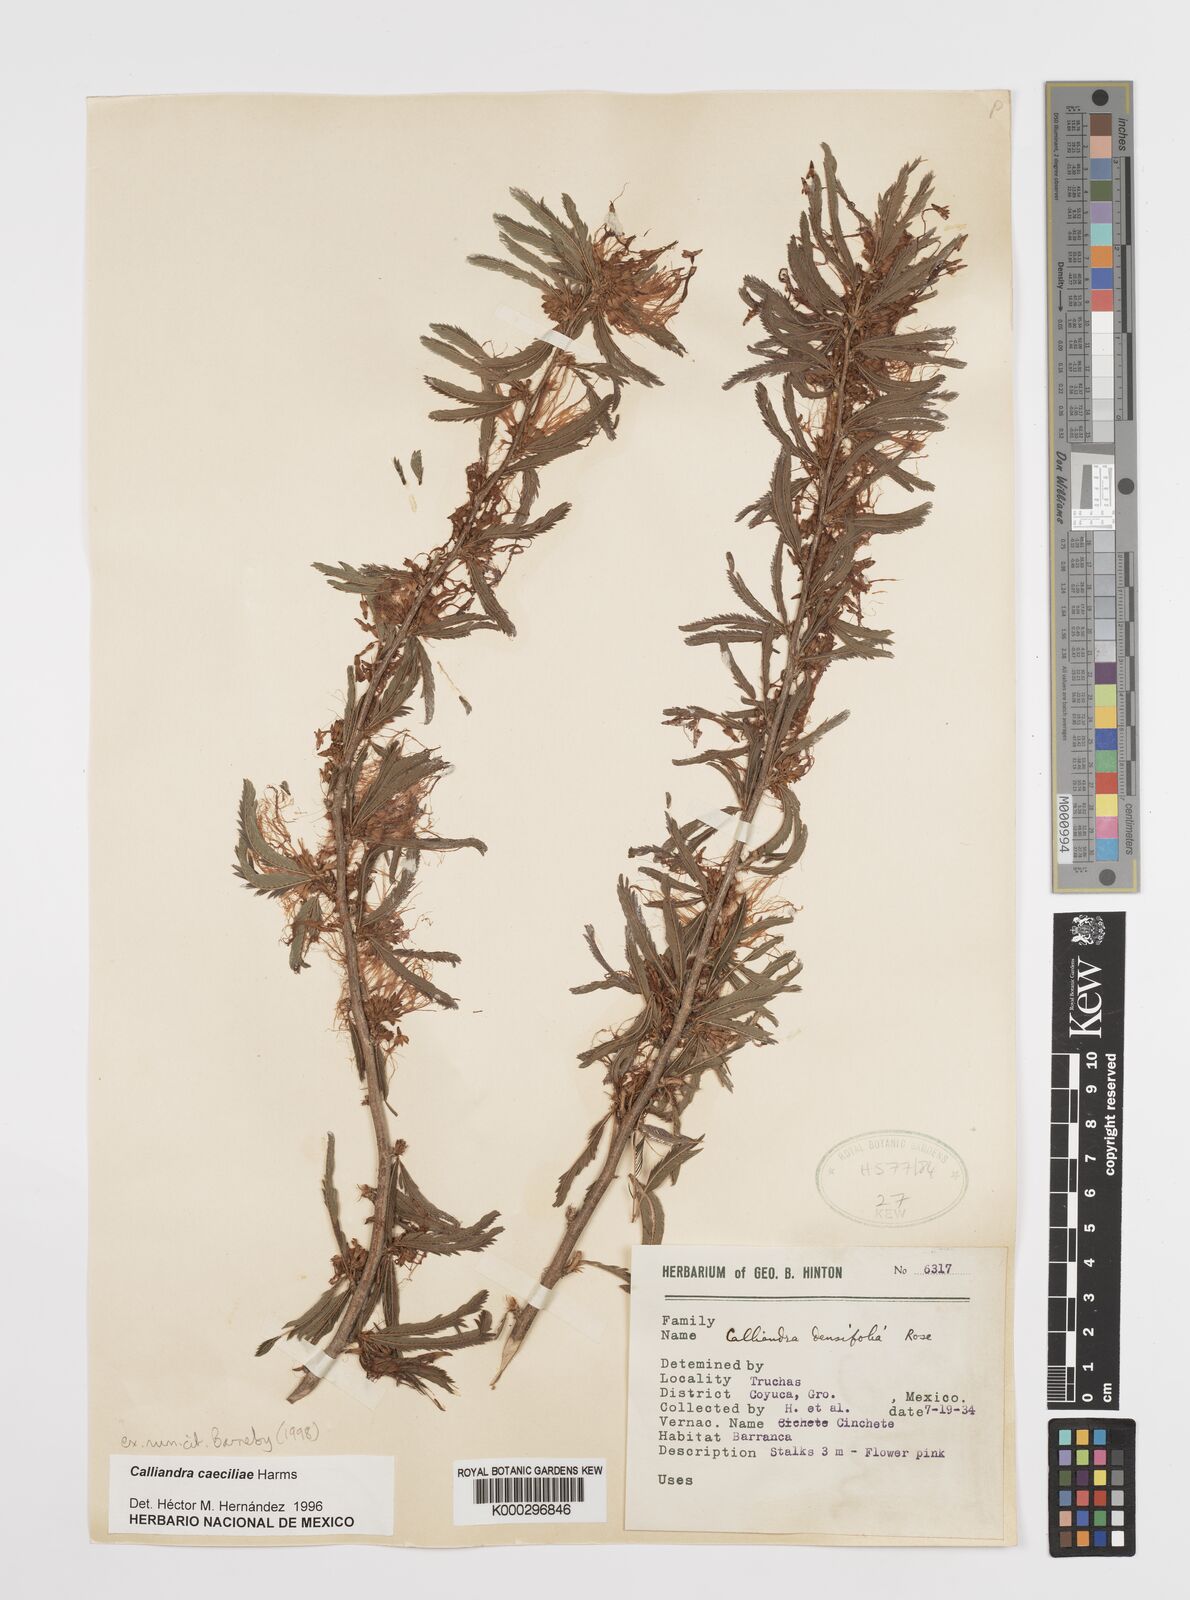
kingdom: Plantae
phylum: Tracheophyta
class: Magnoliopsida
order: Fabales
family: Fabaceae
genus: Calliandra
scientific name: Calliandra caeciliae
